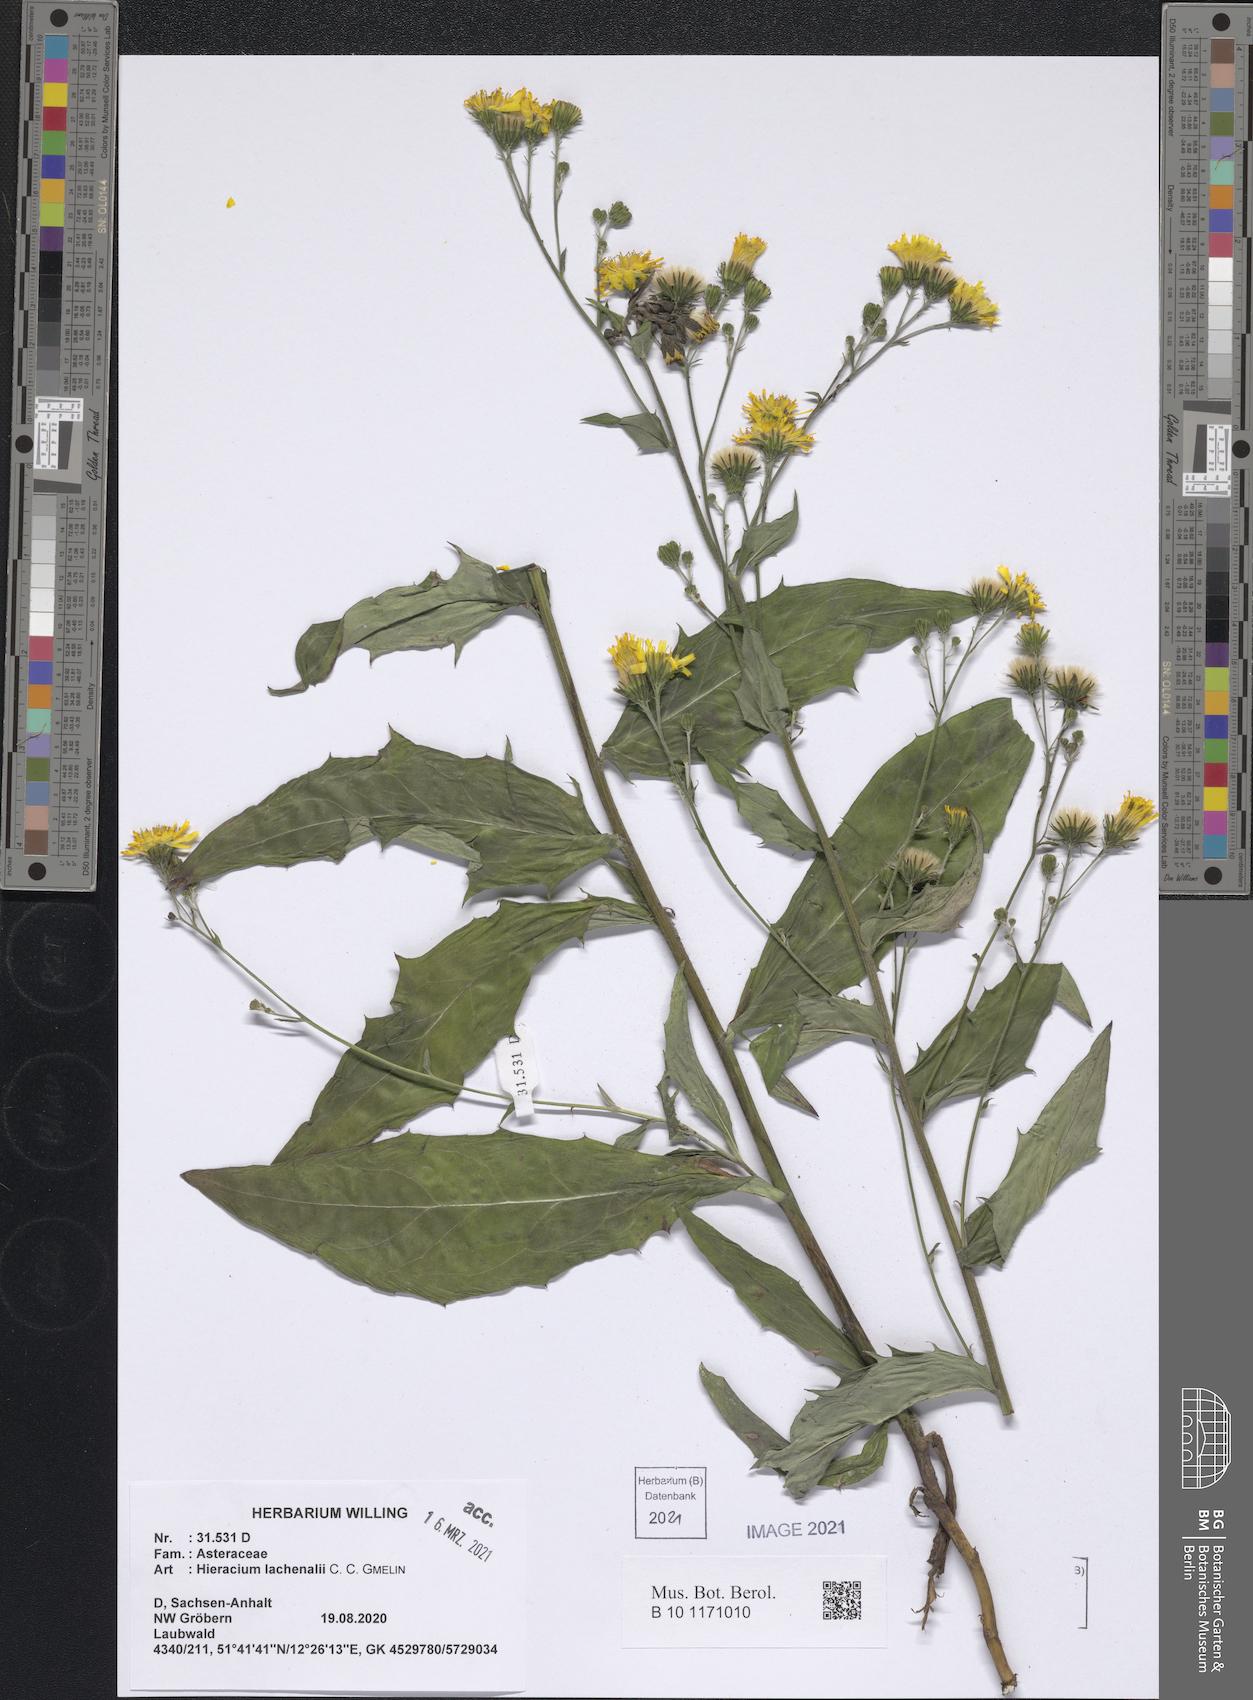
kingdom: Plantae
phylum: Tracheophyta
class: Magnoliopsida
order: Asterales
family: Asteraceae
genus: Hieracium
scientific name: Hieracium lachenalii
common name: Common hawkweed
